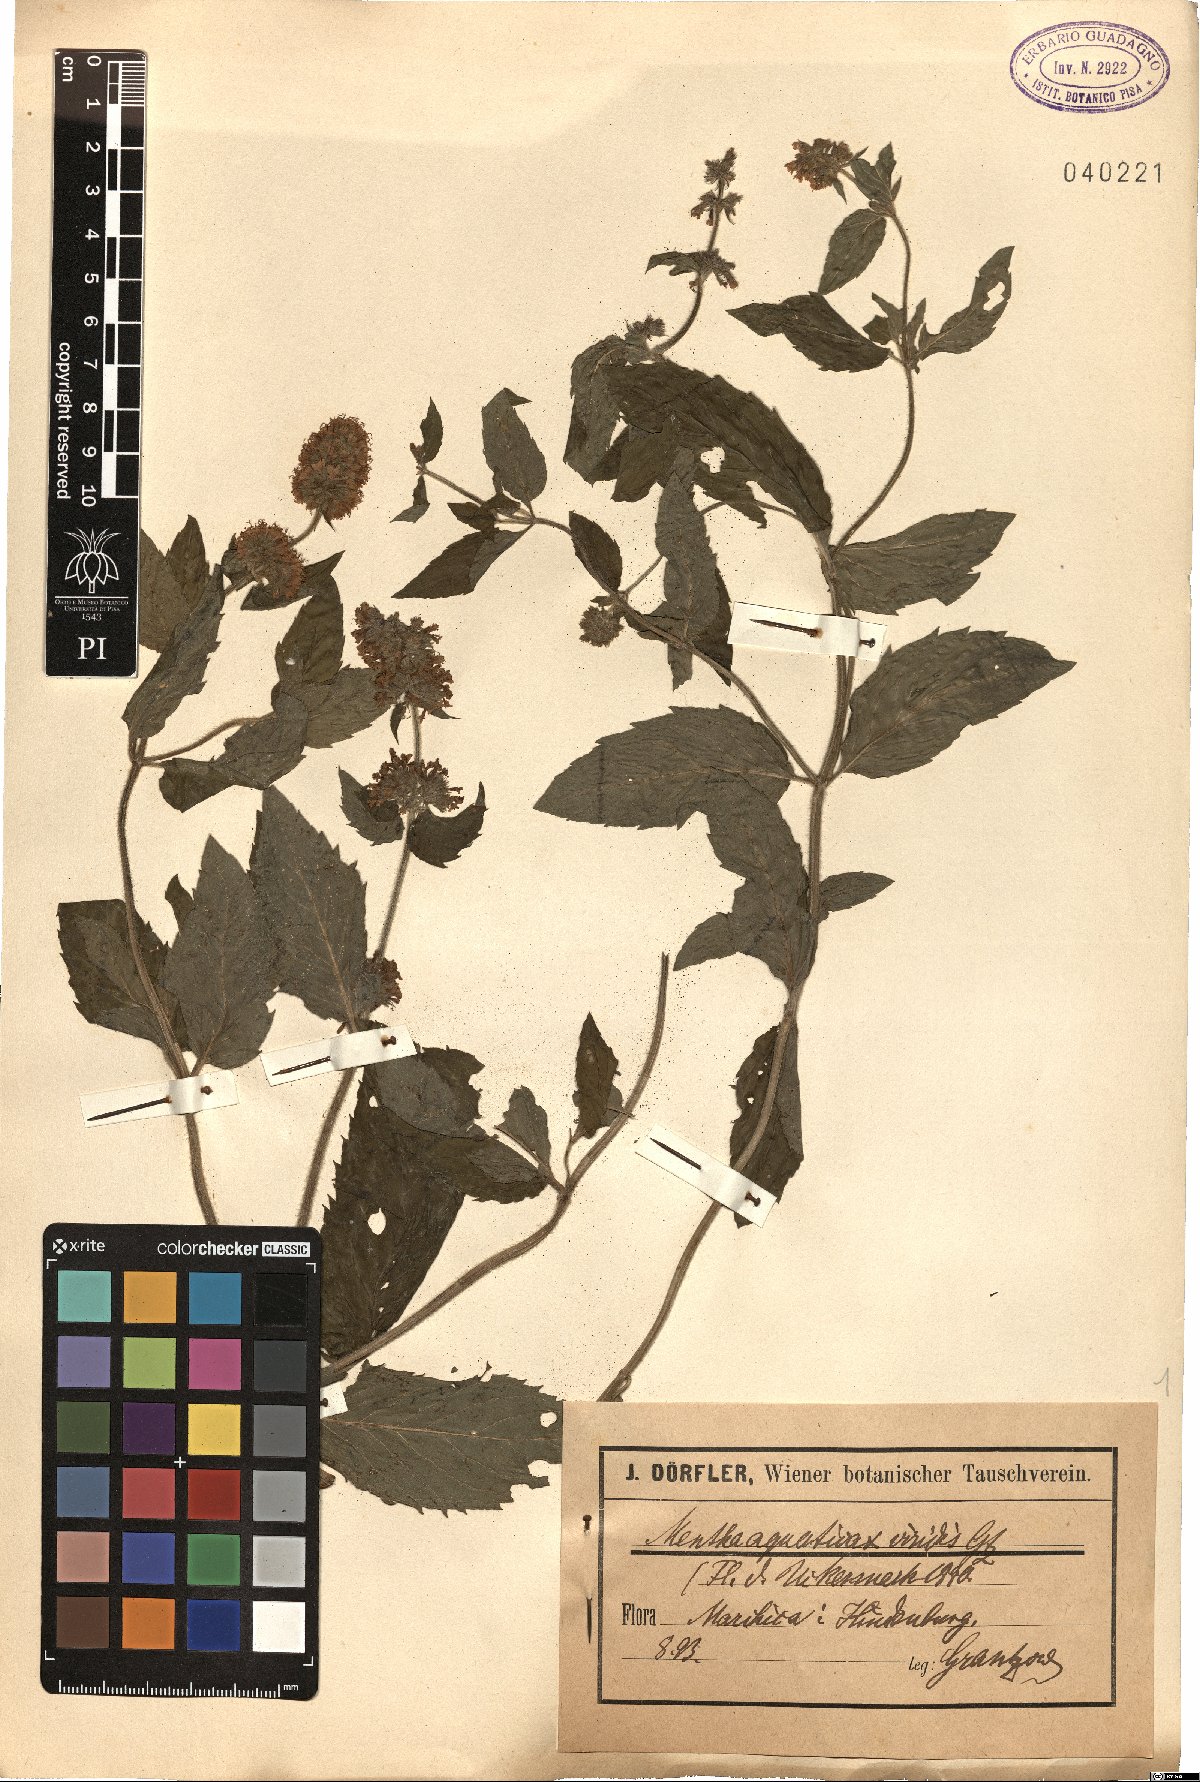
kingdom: Plantae
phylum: Tracheophyta
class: Magnoliopsida
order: Lamiales
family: Lamiaceae
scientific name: Lamiaceae
